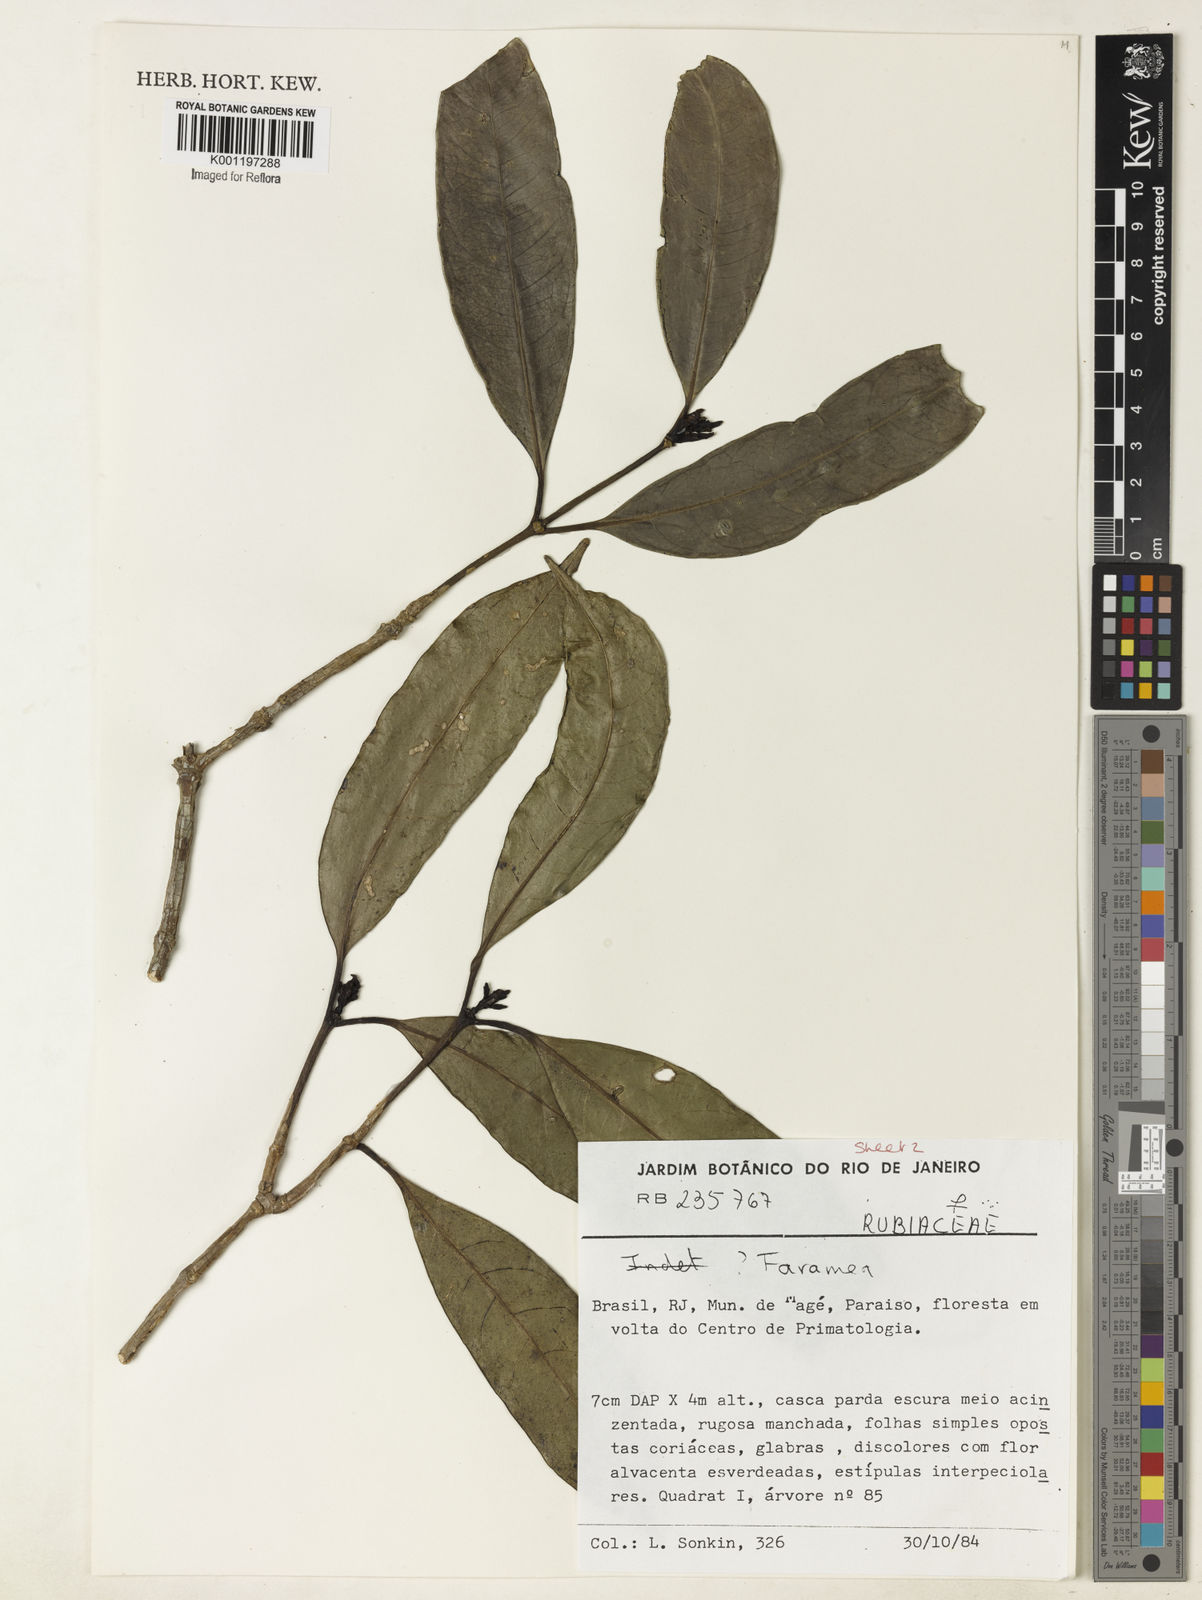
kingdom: Plantae
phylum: Tracheophyta
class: Magnoliopsida
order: Gentianales
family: Rubiaceae
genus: Faramea
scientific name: Faramea
